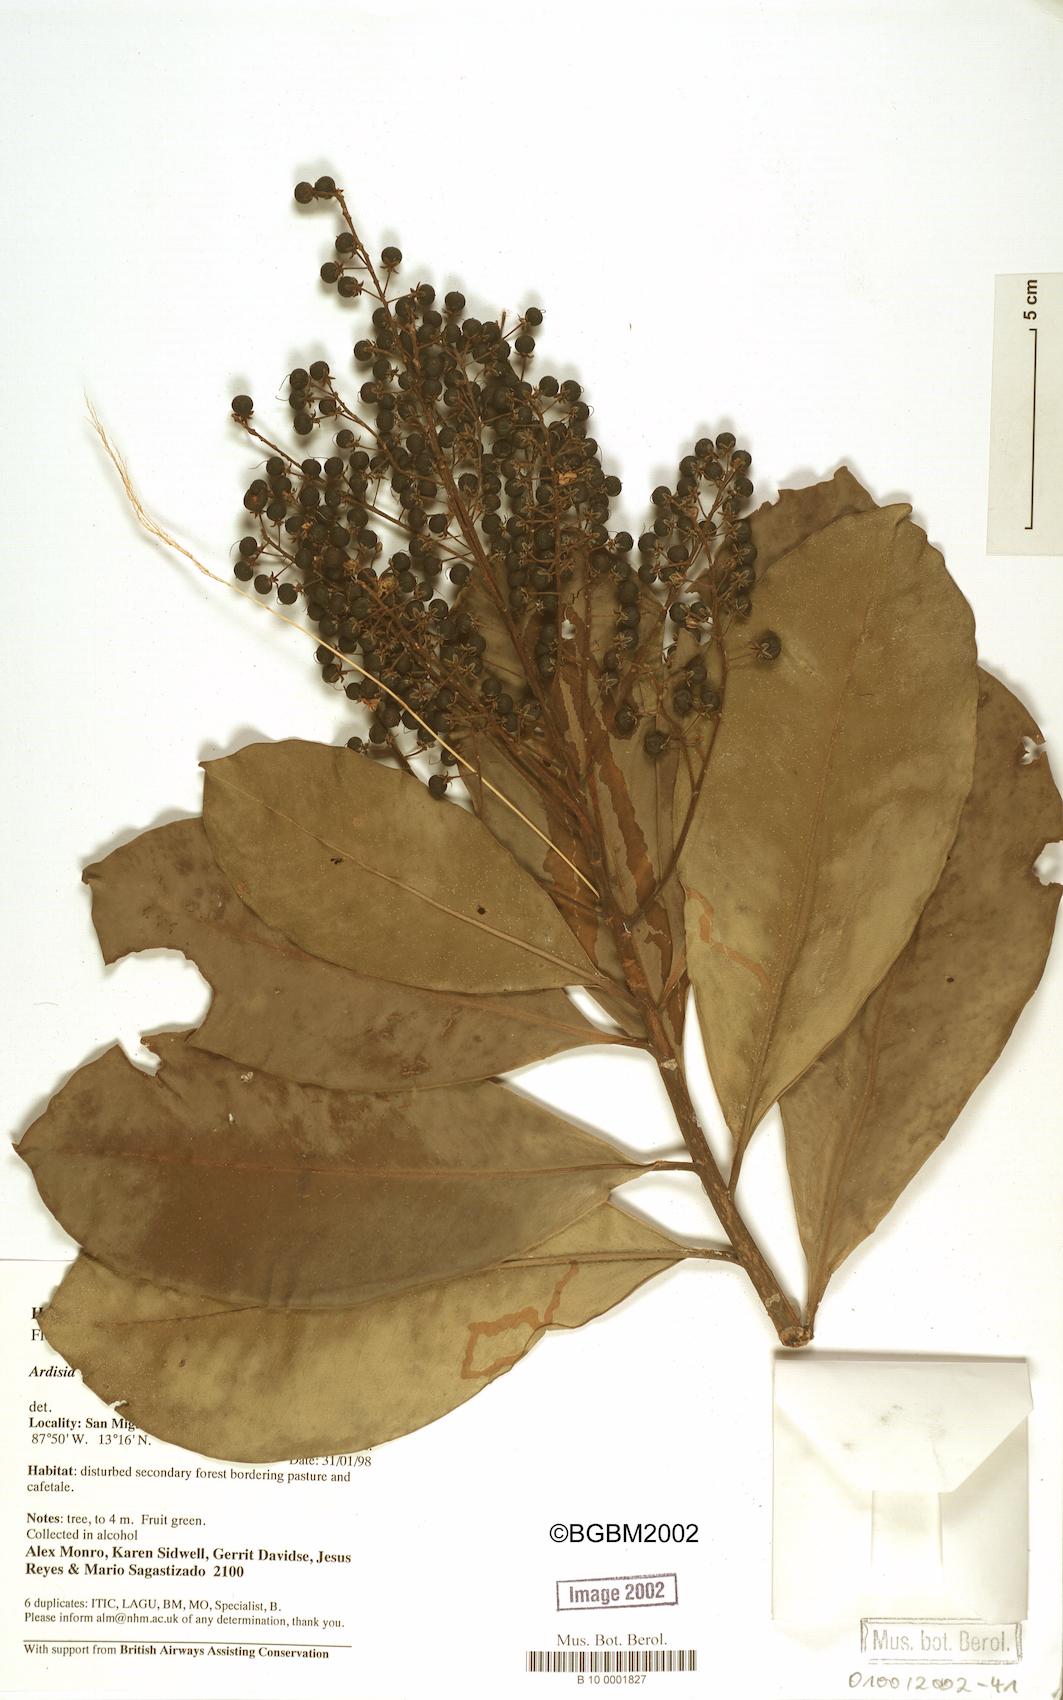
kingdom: Plantae
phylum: Tracheophyta
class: Magnoliopsida
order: Ericales
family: Primulaceae
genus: Ardisia
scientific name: Ardisia revoluta
